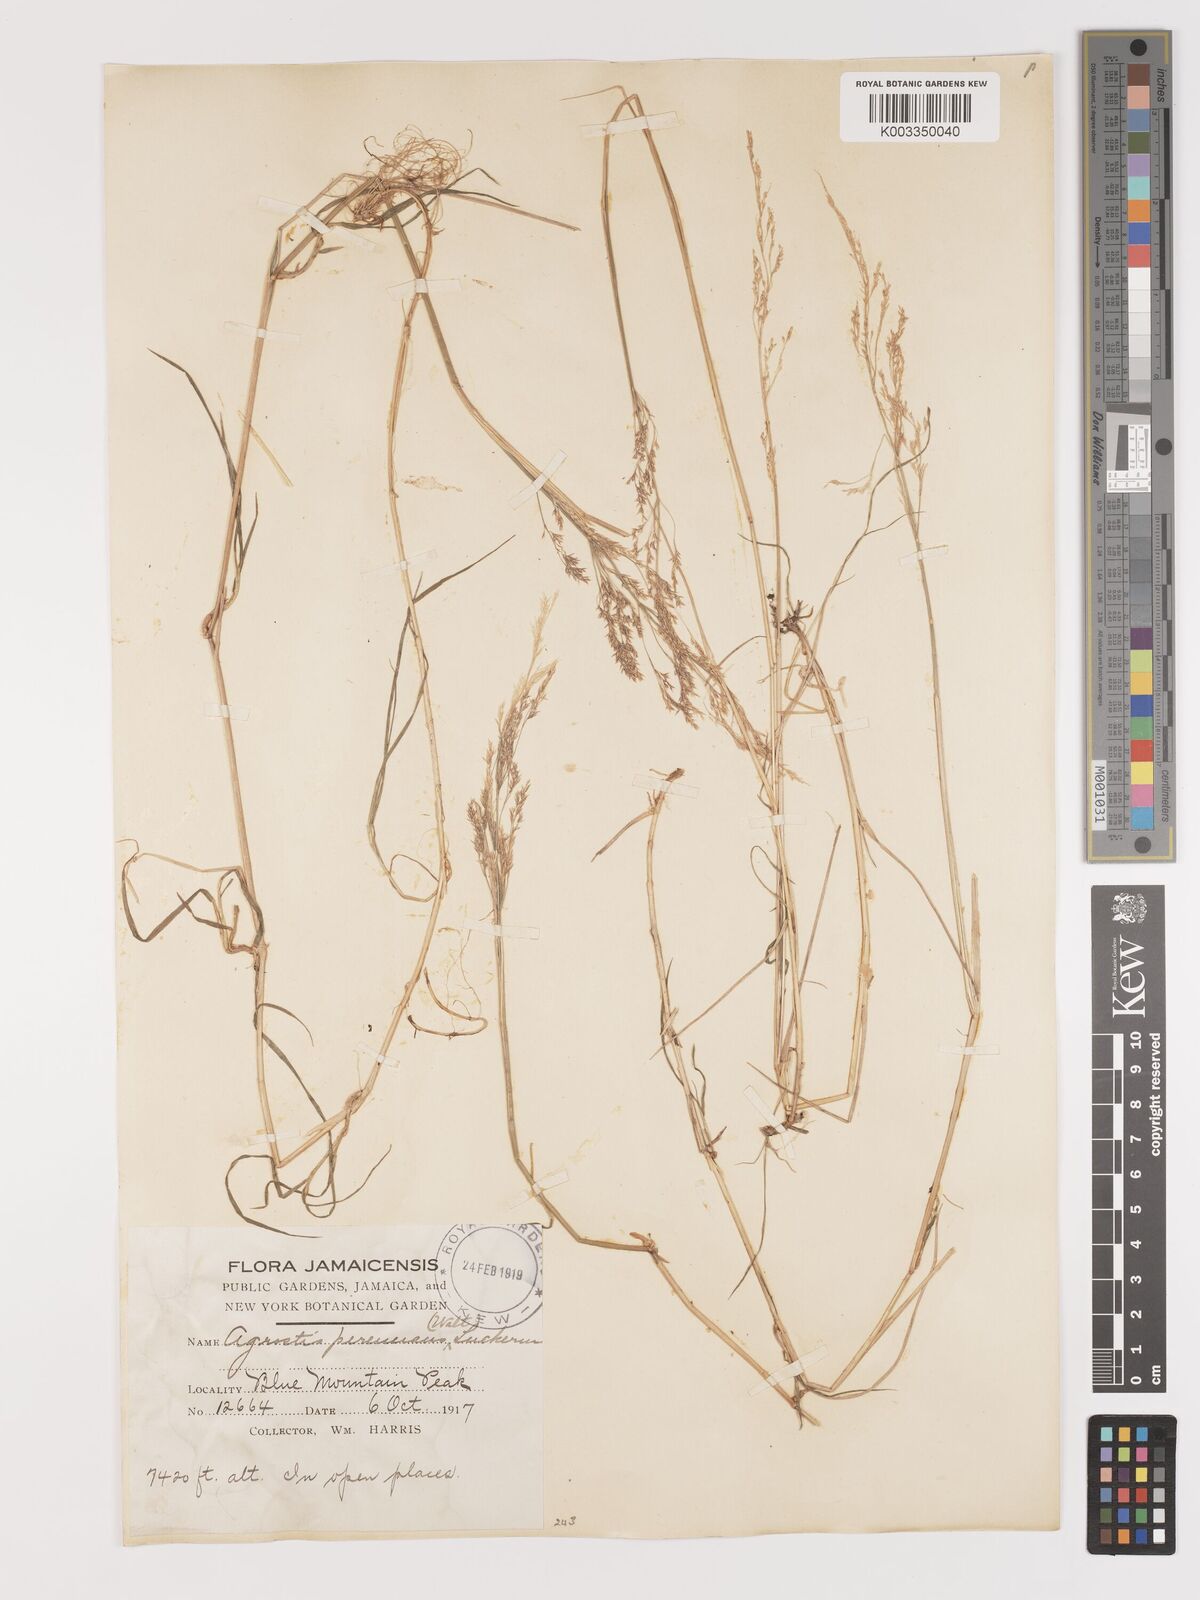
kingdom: Plantae
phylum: Tracheophyta
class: Liliopsida
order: Poales
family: Poaceae
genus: Agrostis
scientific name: Agrostis gigantea
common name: Black bent
